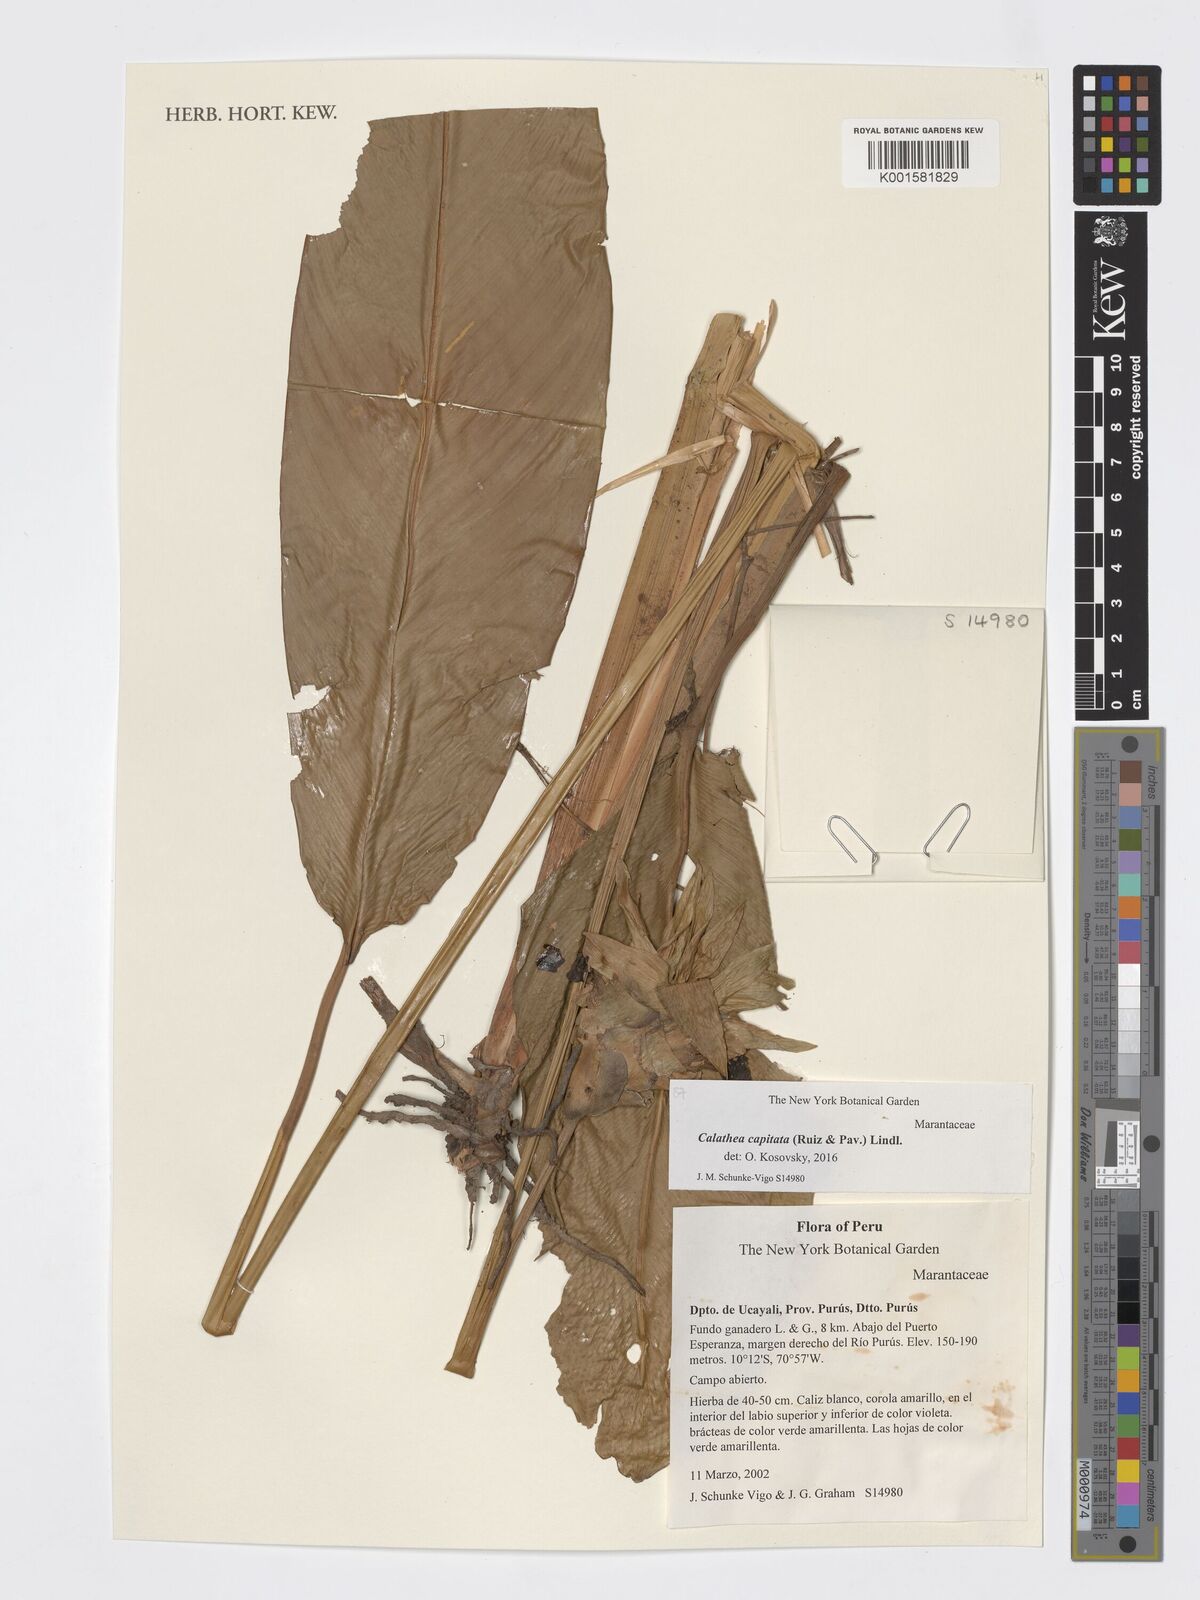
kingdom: Plantae
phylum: Tracheophyta
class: Liliopsida
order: Zingiberales
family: Marantaceae
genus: Goeppertia
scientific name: Goeppertia capitata
